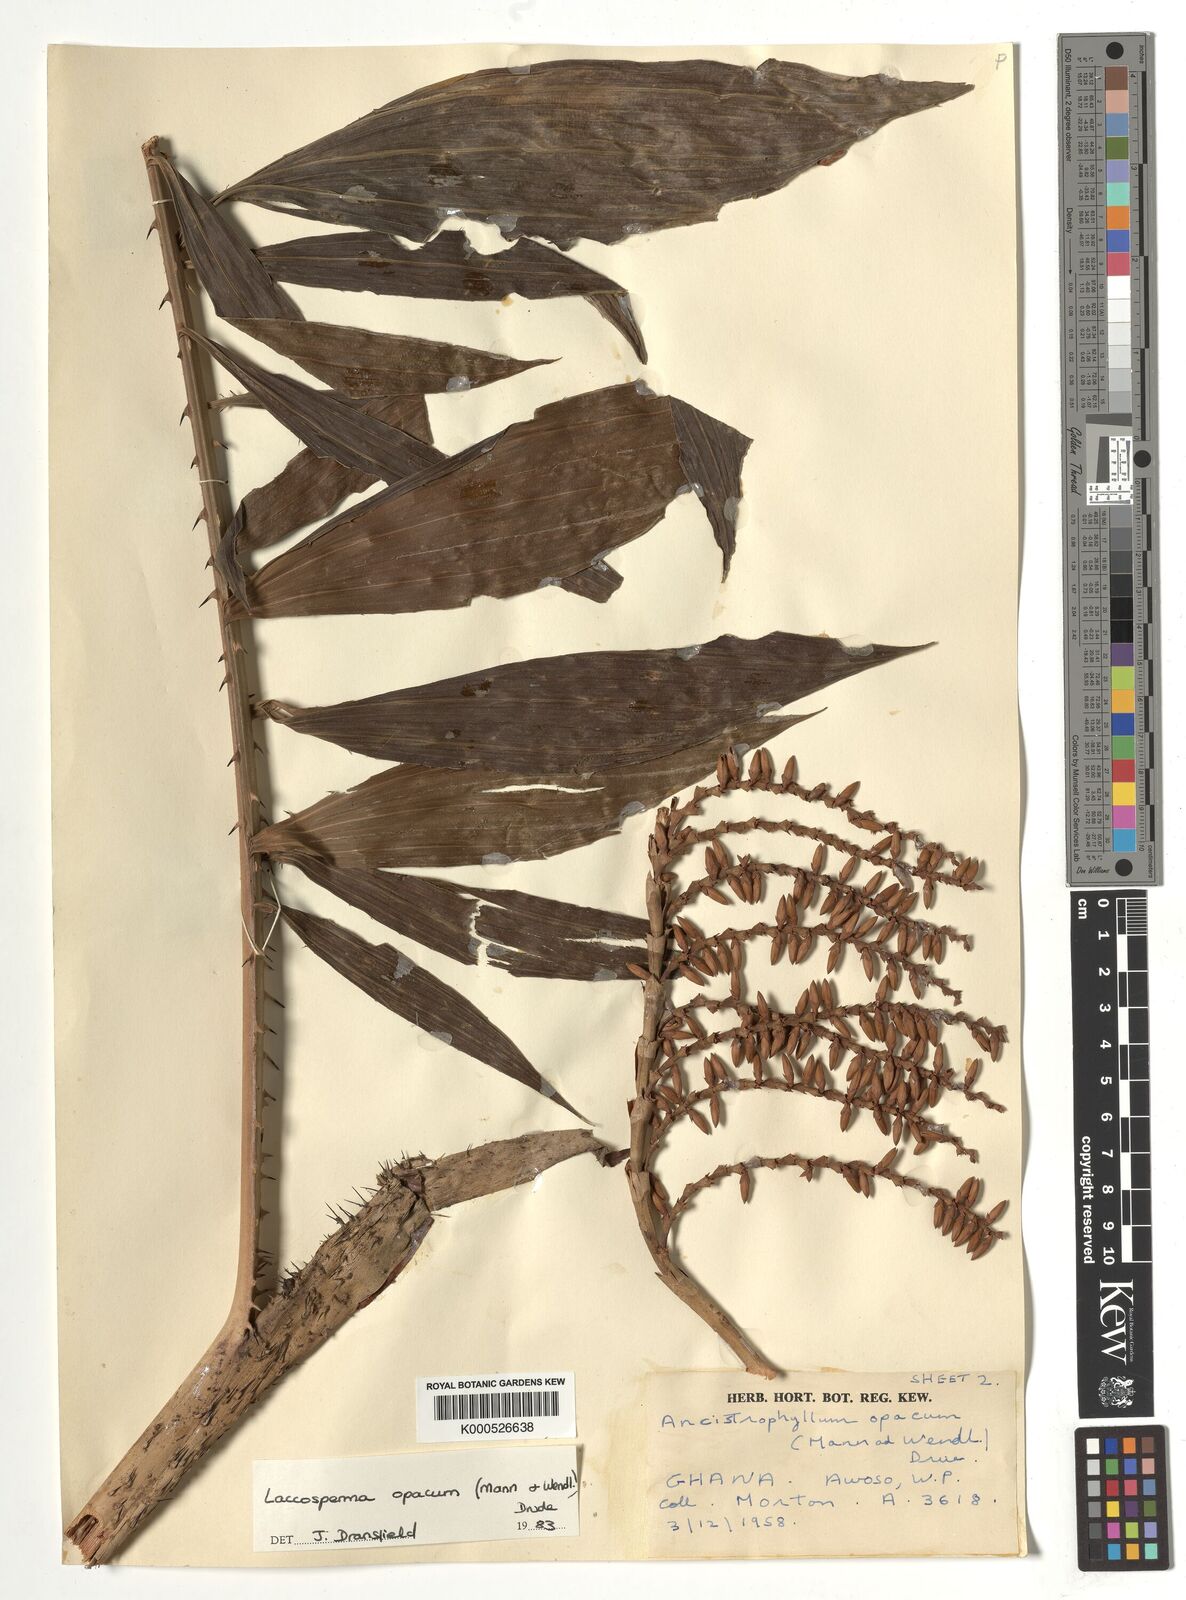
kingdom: Plantae
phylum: Tracheophyta
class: Liliopsida
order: Arecales
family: Arecaceae
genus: Laccosperma
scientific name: Laccosperma opacum
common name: Rattan
